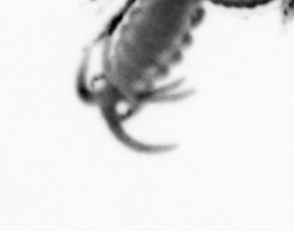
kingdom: Animalia
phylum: Annelida
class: Polychaeta
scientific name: Polychaeta
